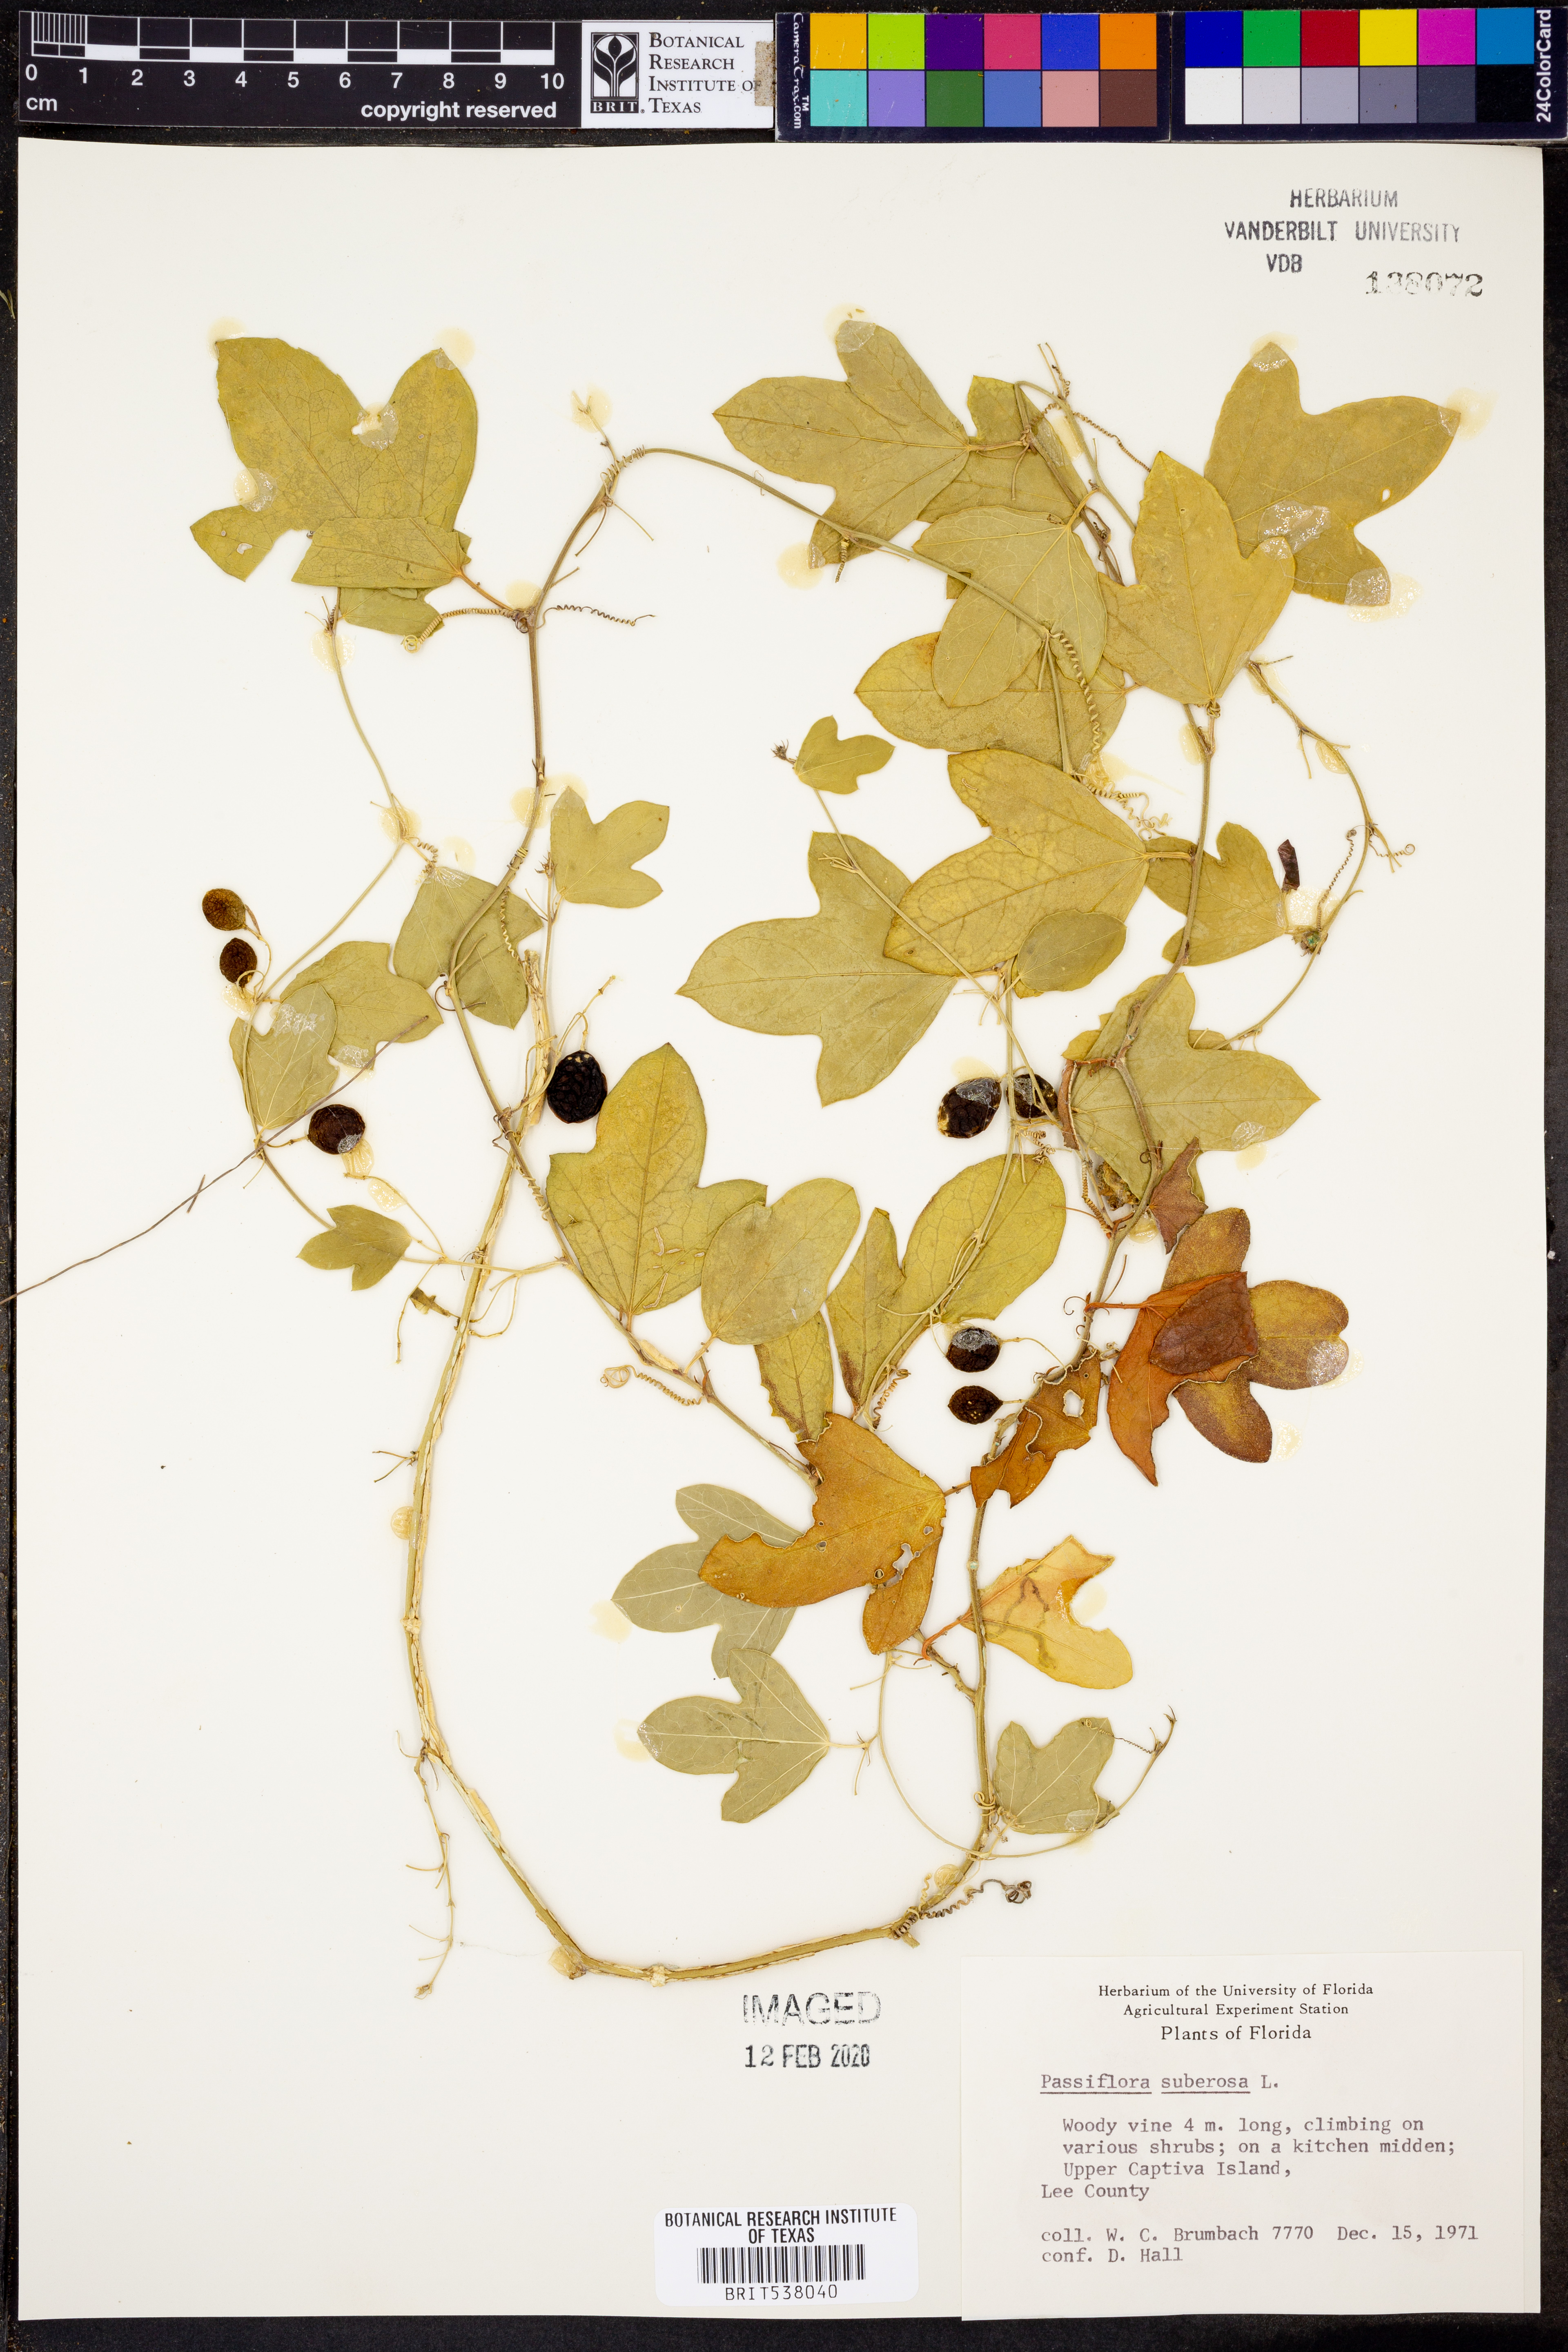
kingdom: Plantae
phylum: Tracheophyta
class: Magnoliopsida
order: Malpighiales
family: Passifloraceae
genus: Passiflora
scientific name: Passiflora suberosa
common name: Wild passionfruit
